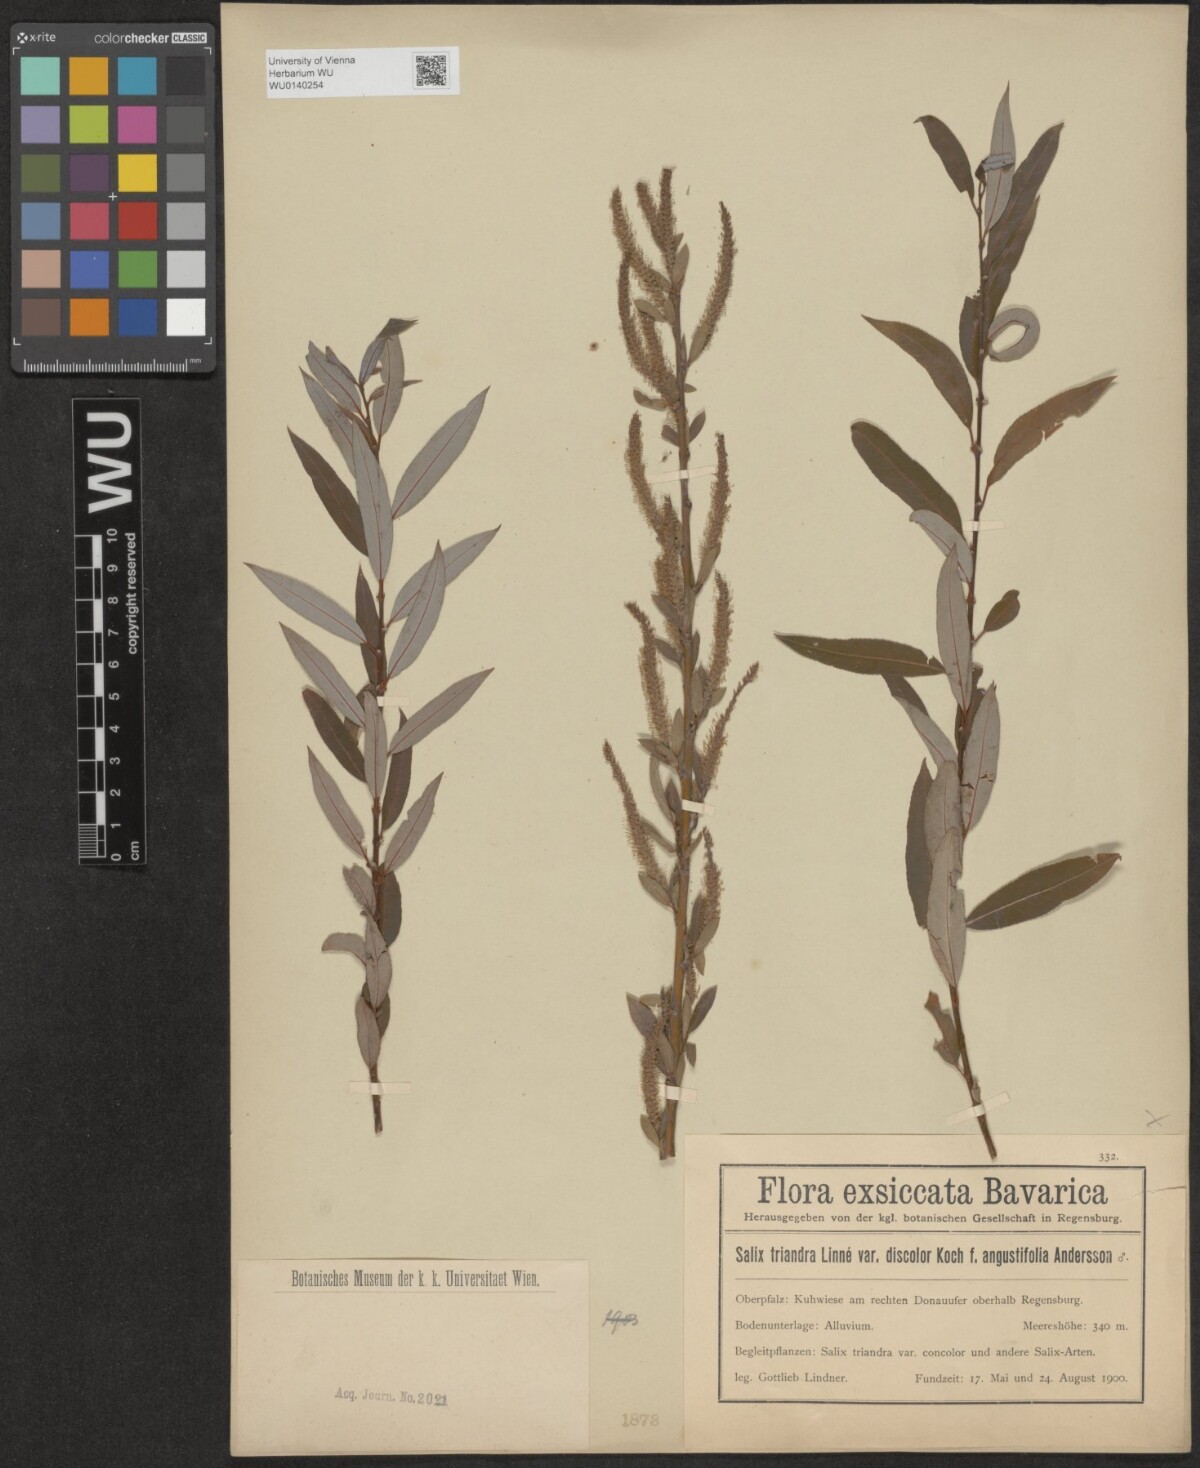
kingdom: Plantae
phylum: Tracheophyta
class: Magnoliopsida
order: Malpighiales
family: Salicaceae
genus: Salix
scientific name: Salix triandra
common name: Almond willow
